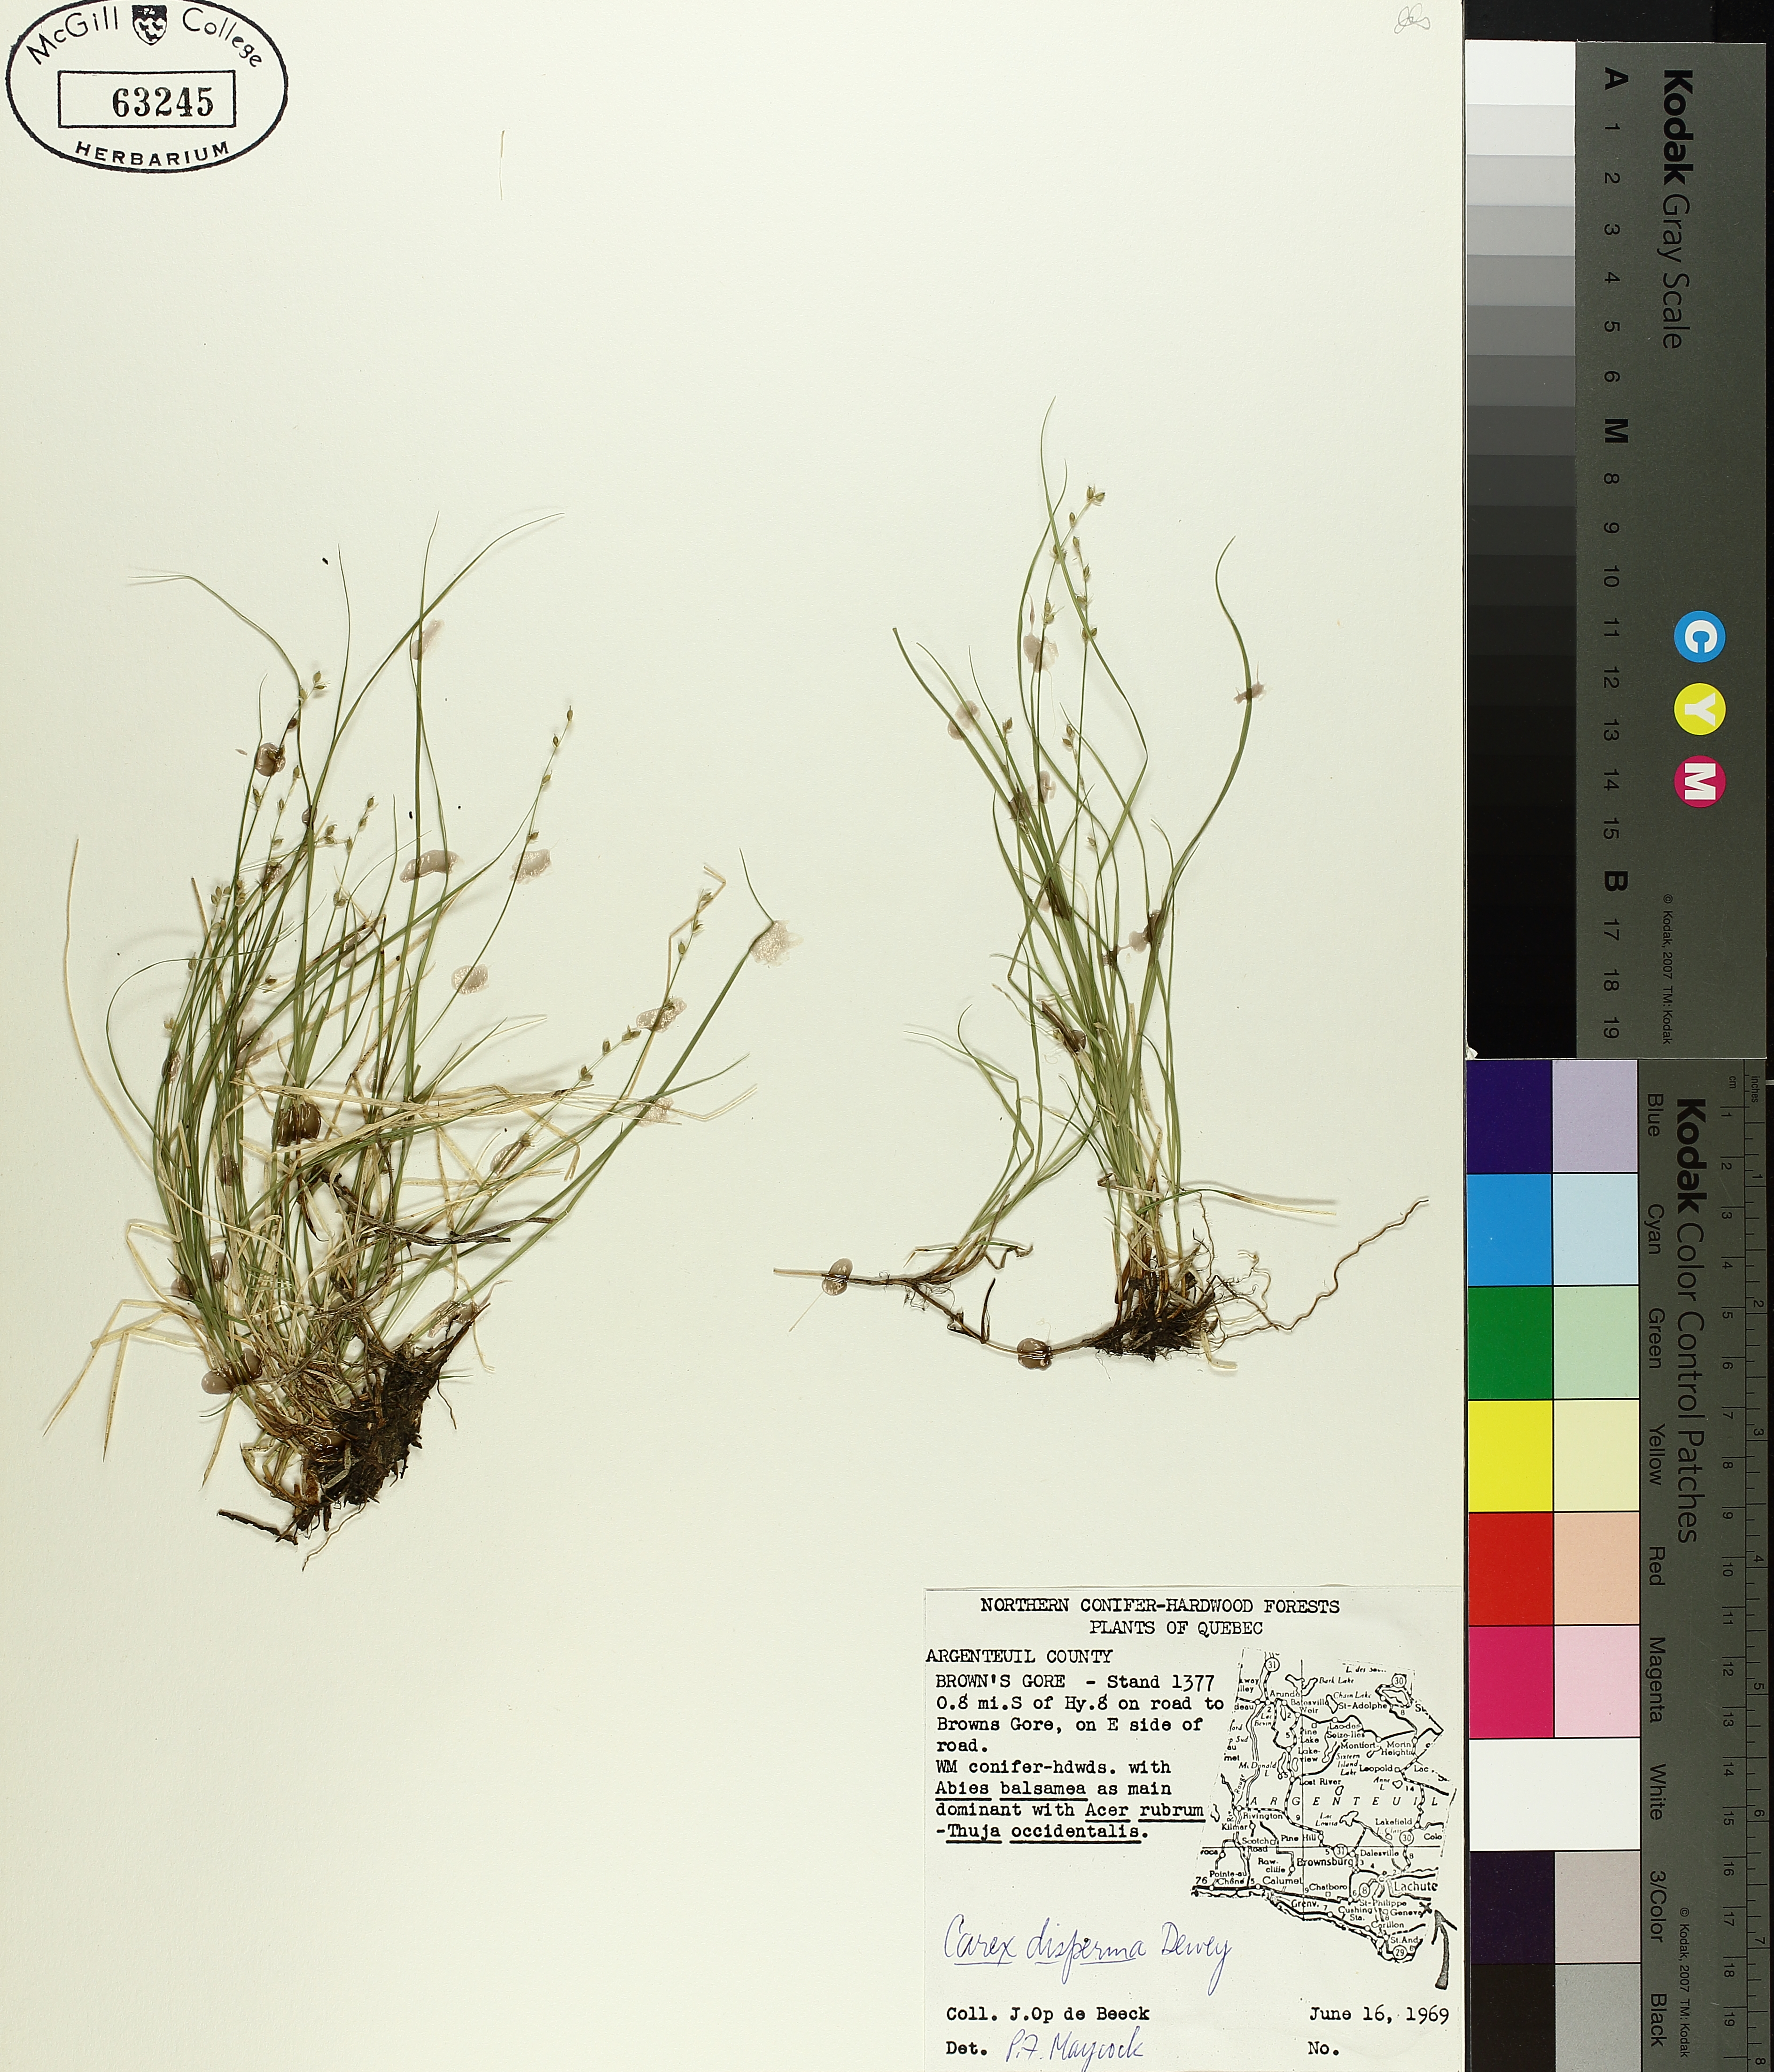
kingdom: Plantae
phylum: Tracheophyta
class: Liliopsida
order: Poales
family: Cyperaceae
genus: Carex
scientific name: Carex disperma
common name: Short-leaved sedge
